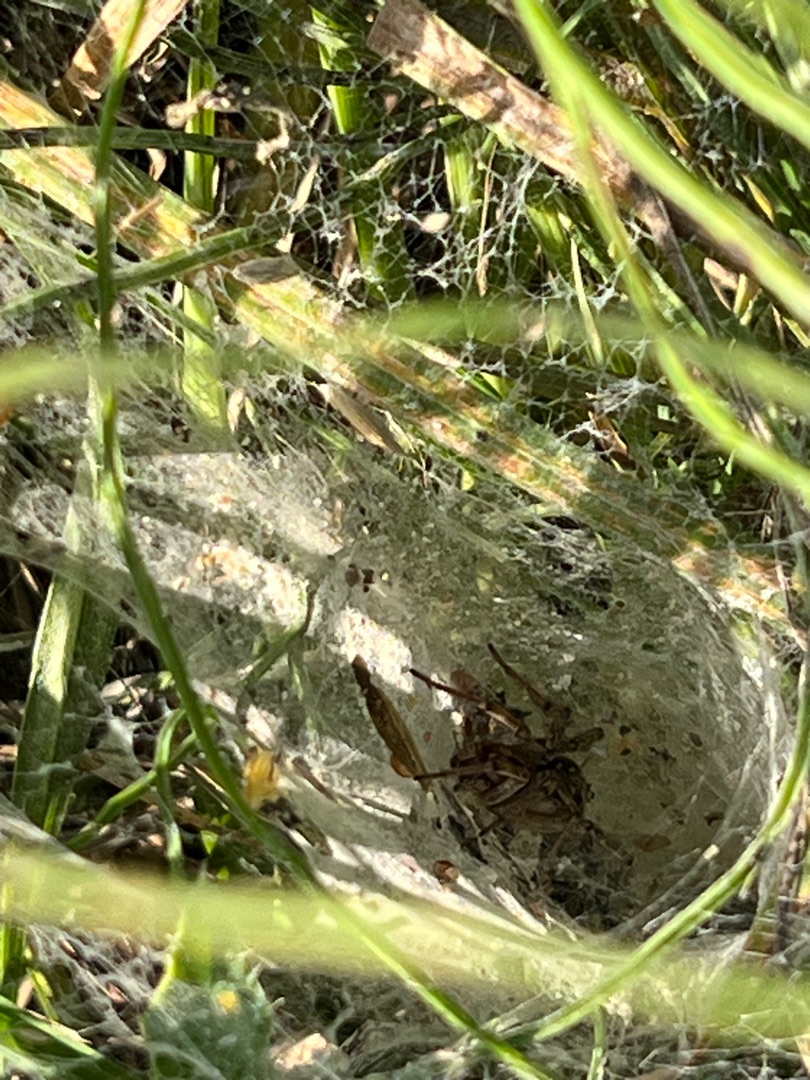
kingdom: Animalia
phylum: Arthropoda
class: Arachnida
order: Araneae
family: Agelenidae
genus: Agelena
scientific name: Agelena labyrinthica
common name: Labyrintedderkop
